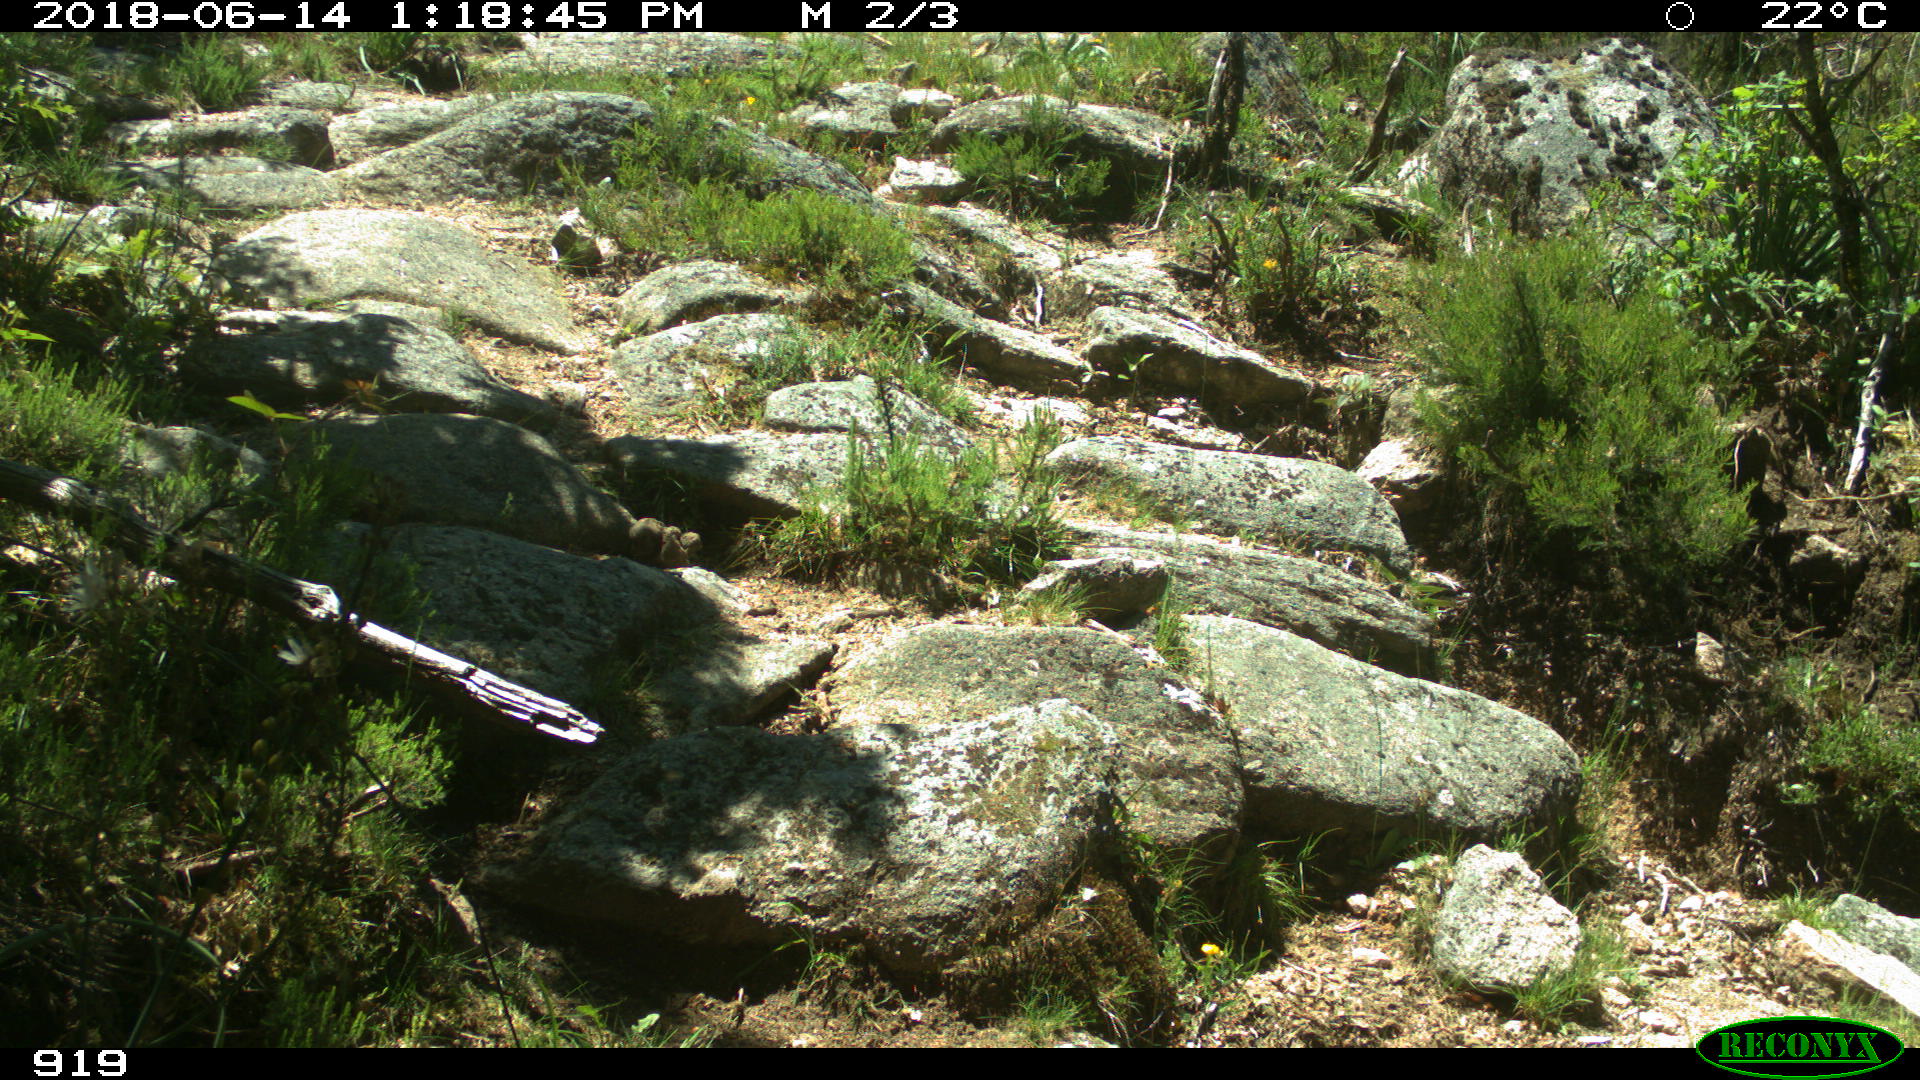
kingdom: Animalia
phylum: Chordata
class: Mammalia
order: Artiodactyla
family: Bovidae
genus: Bos
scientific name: Bos taurus
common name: Domesticated cattle
